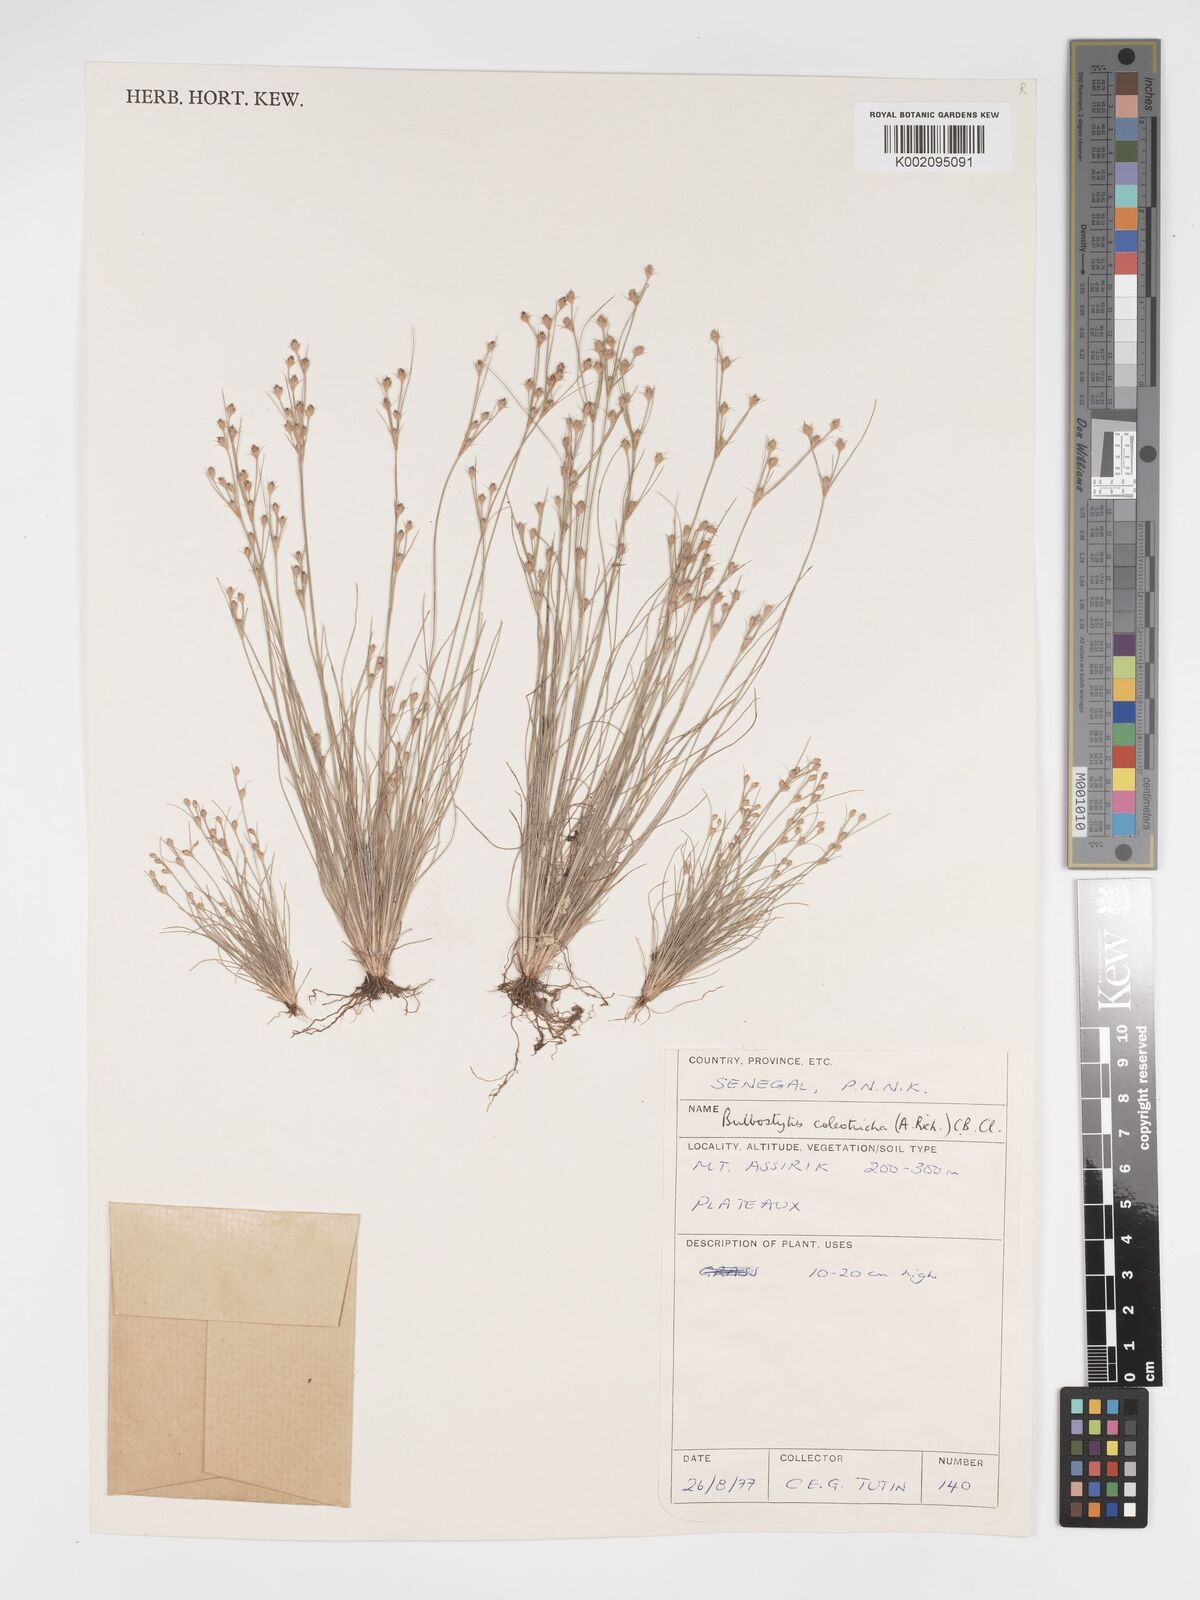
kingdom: Plantae
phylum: Tracheophyta
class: Liliopsida
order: Poales
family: Cyperaceae
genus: Bulbostylis
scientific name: Bulbostylis coleotricha
